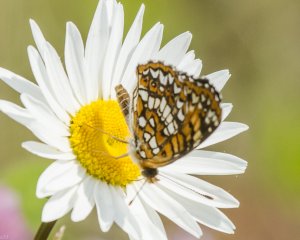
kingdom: Animalia
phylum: Arthropoda
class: Insecta
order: Lepidoptera
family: Nymphalidae
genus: Chlosyne
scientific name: Chlosyne harrisii
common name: Harris's Checkerspot
